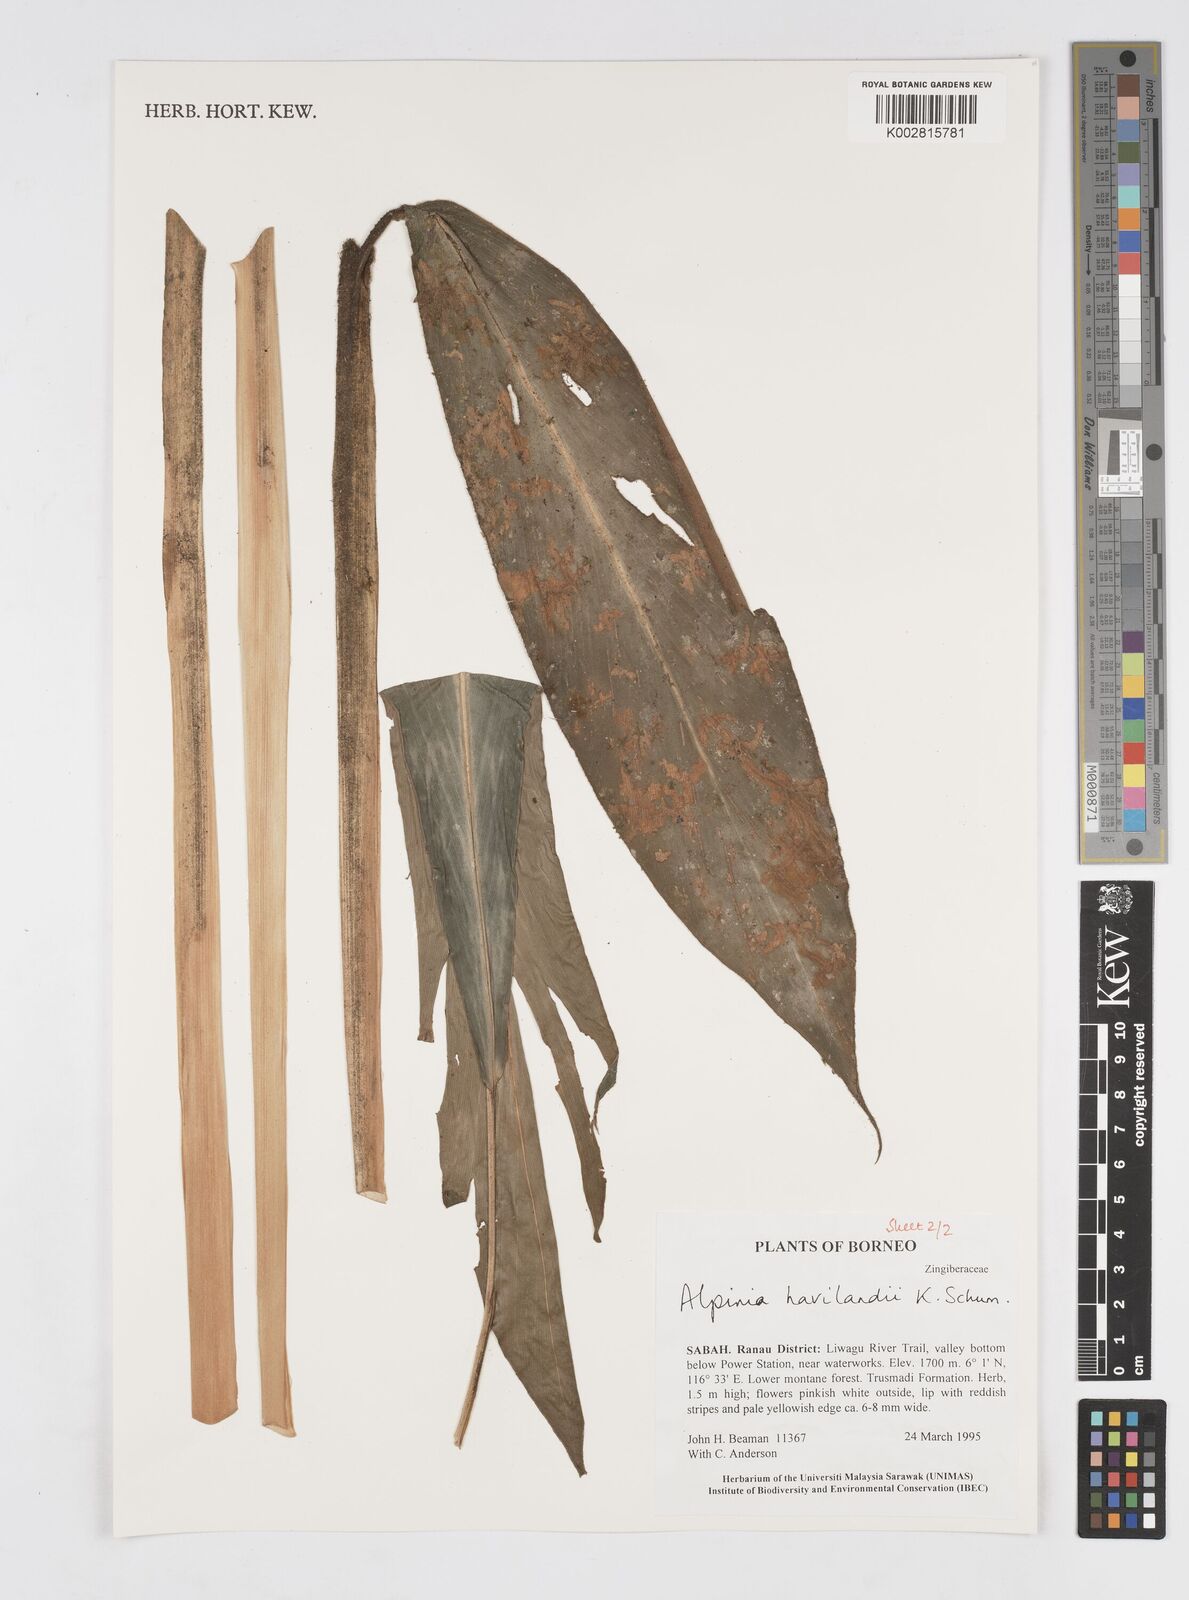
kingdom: Plantae
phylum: Tracheophyta
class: Liliopsida
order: Zingiberales
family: Zingiberaceae
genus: Alpinia
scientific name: Alpinia havilandii
